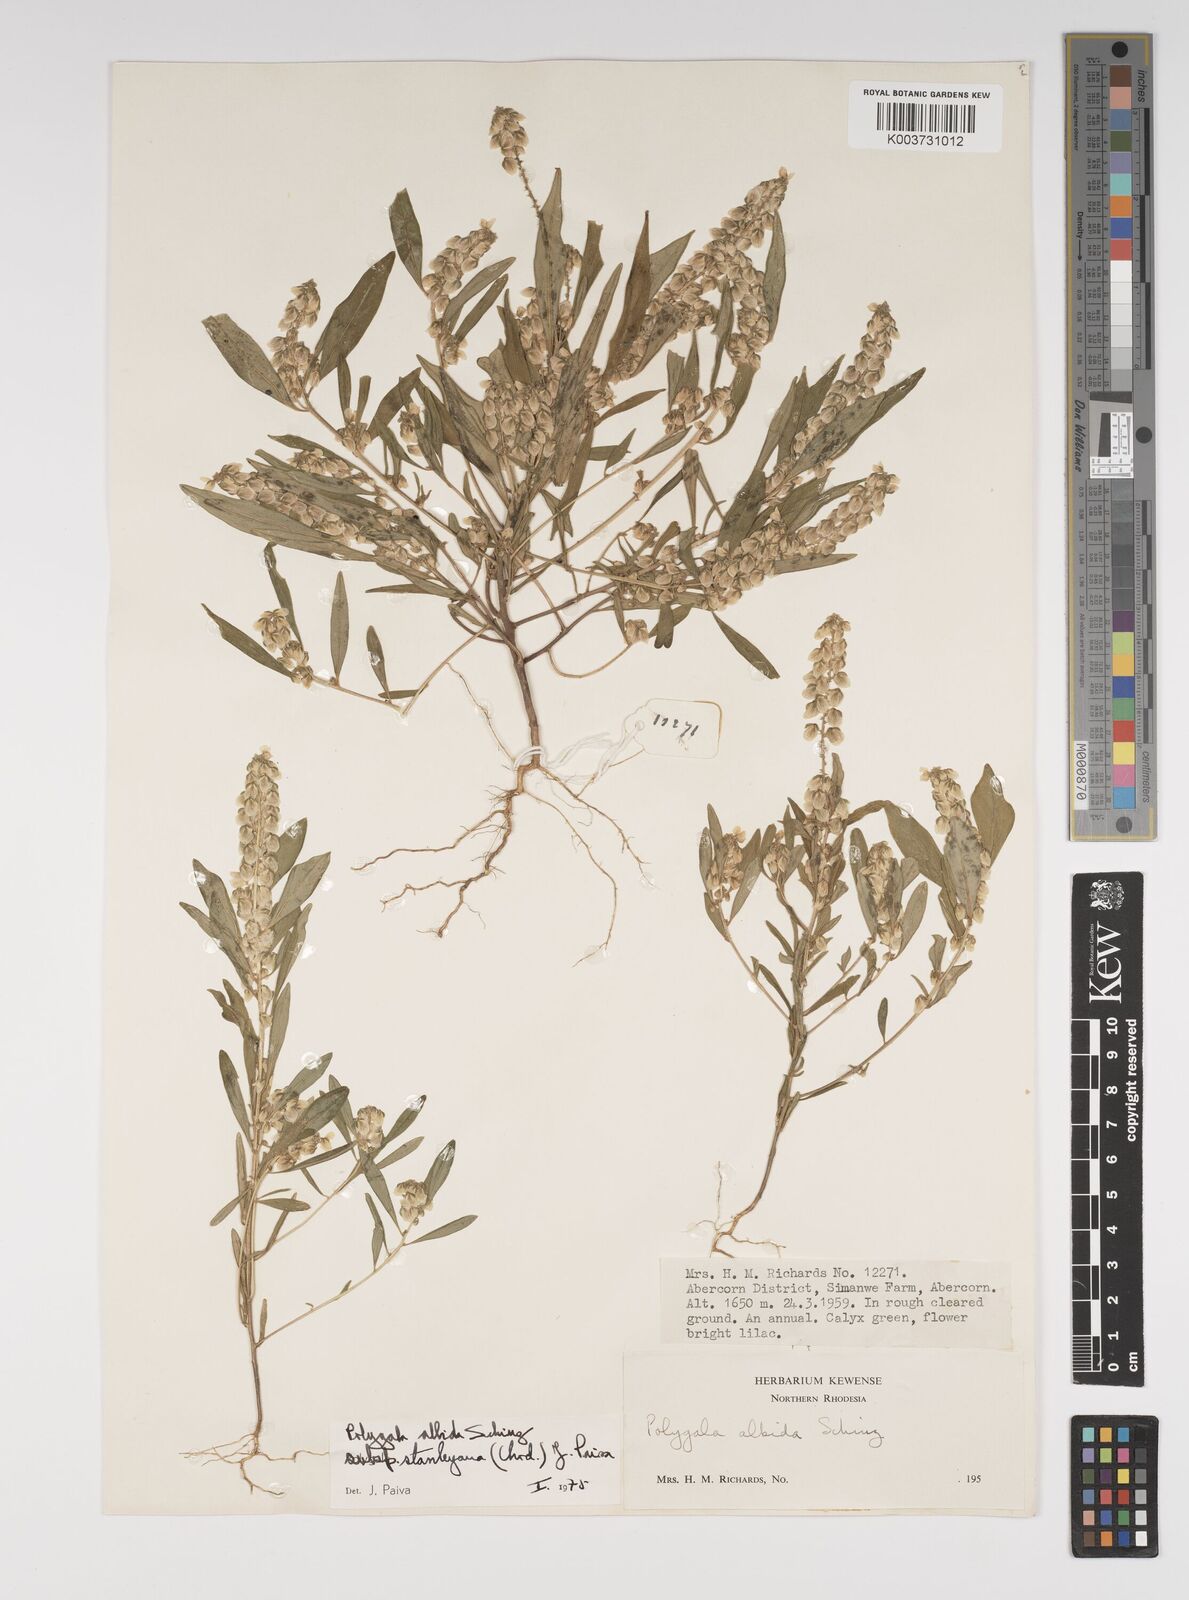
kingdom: Plantae
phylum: Tracheophyta
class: Magnoliopsida
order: Fabales
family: Polygalaceae
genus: Polygala
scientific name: Polygala albida
